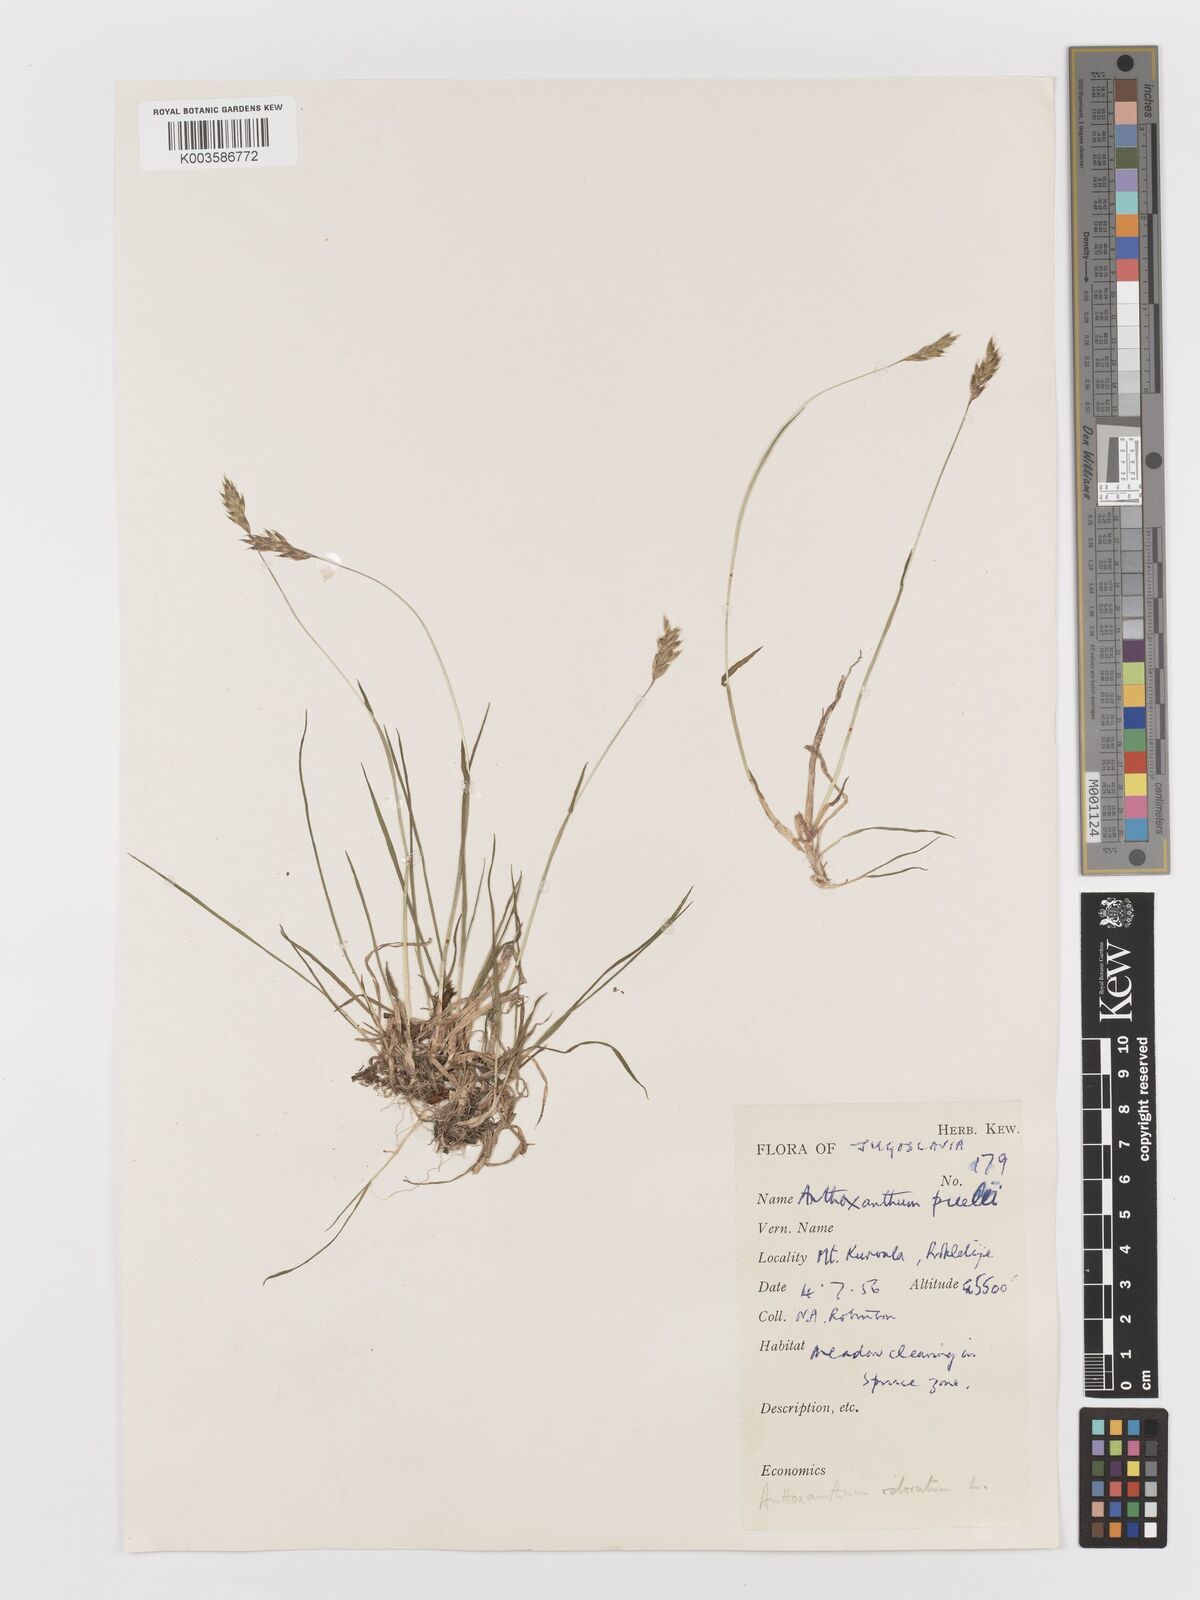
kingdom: Plantae
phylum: Tracheophyta
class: Liliopsida
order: Poales
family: Poaceae
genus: Anthoxanthum
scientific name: Anthoxanthum odoratum
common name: Sweet vernalgrass
